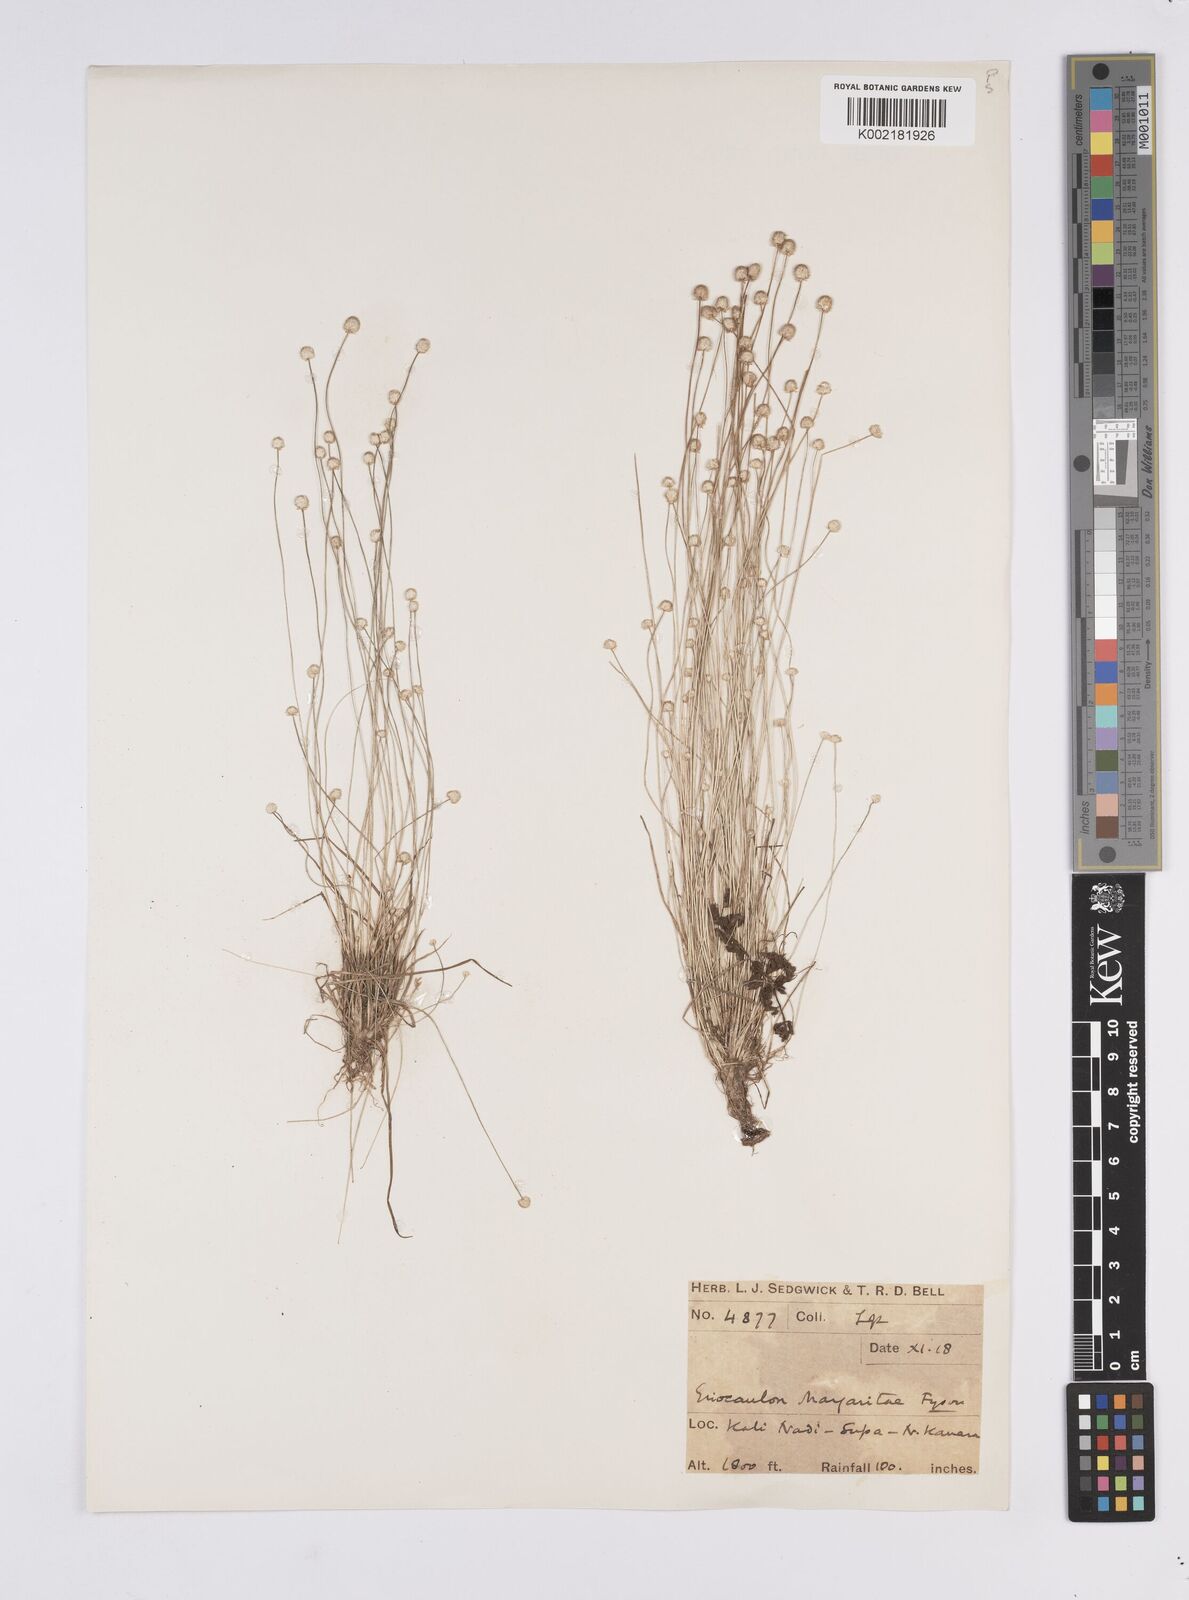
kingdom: Plantae
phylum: Tracheophyta
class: Liliopsida
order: Poales
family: Eriocaulaceae
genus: Eriocaulon
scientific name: Eriocaulon margaretae
